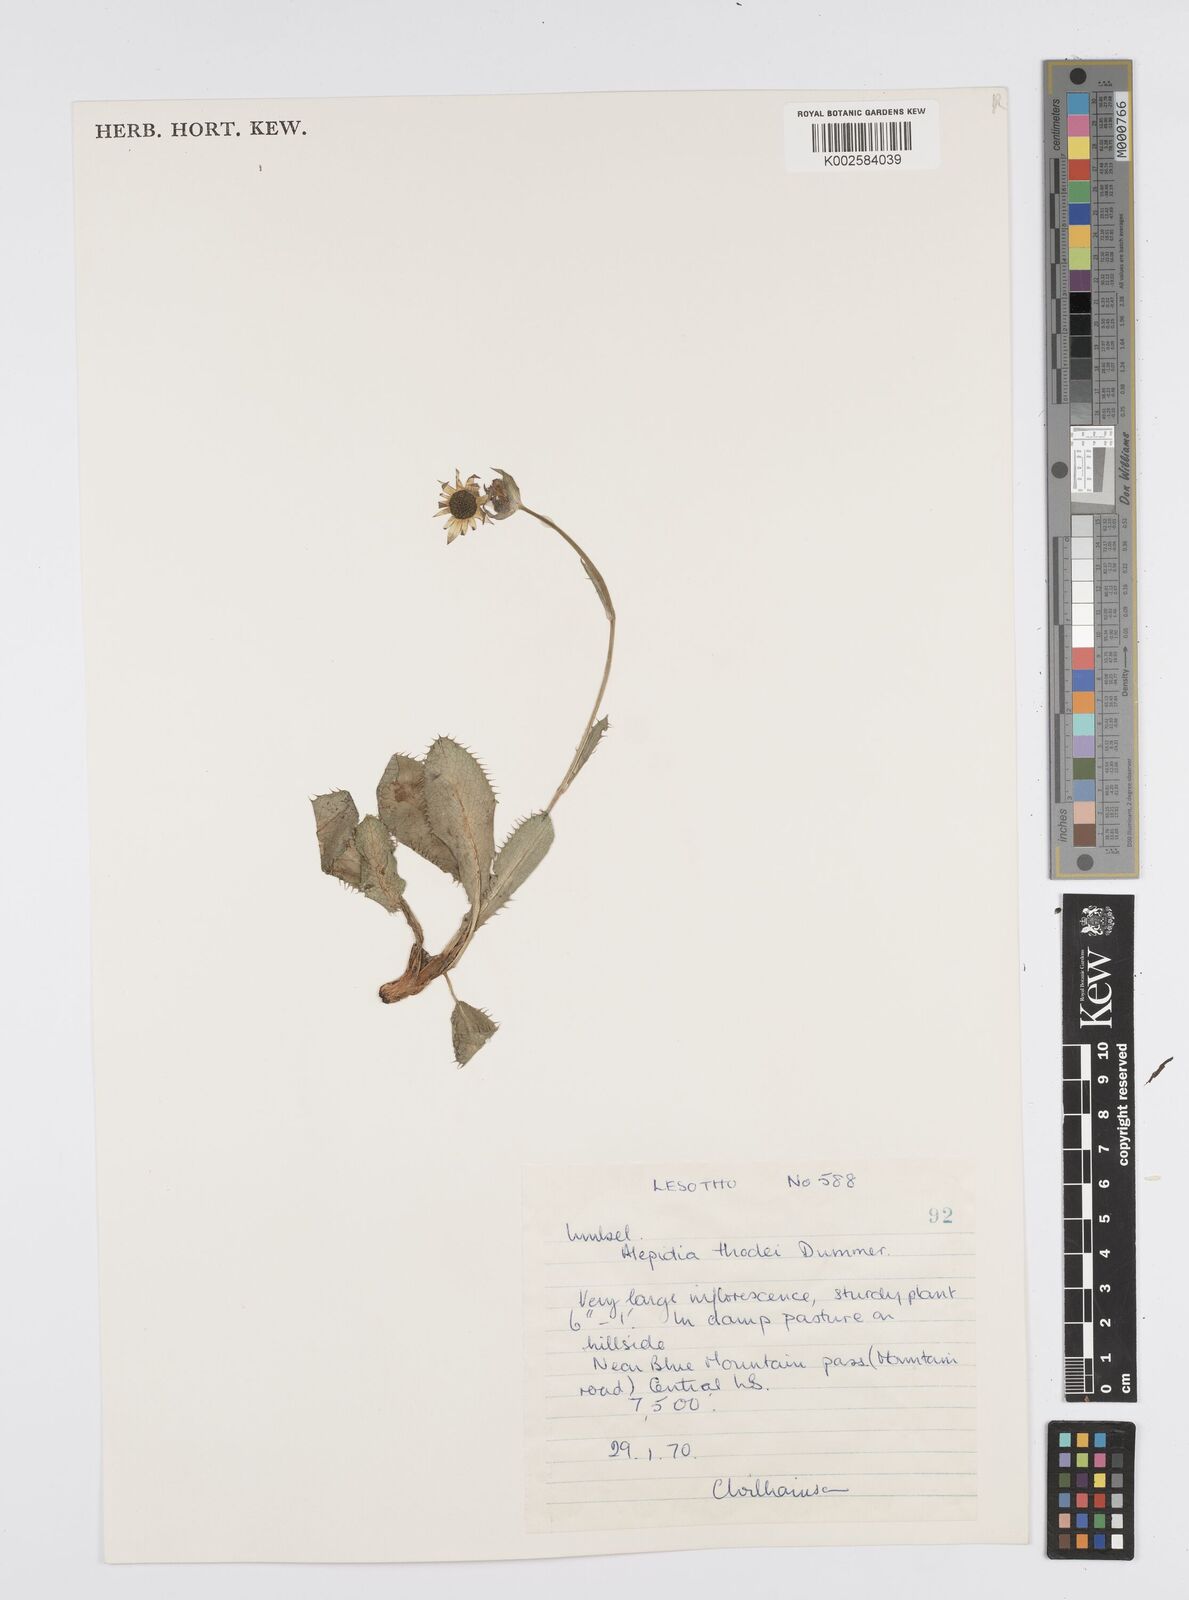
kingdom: Plantae
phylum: Tracheophyta
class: Magnoliopsida
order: Apiales
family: Apiaceae
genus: Alepidea
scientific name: Alepidea thodei
